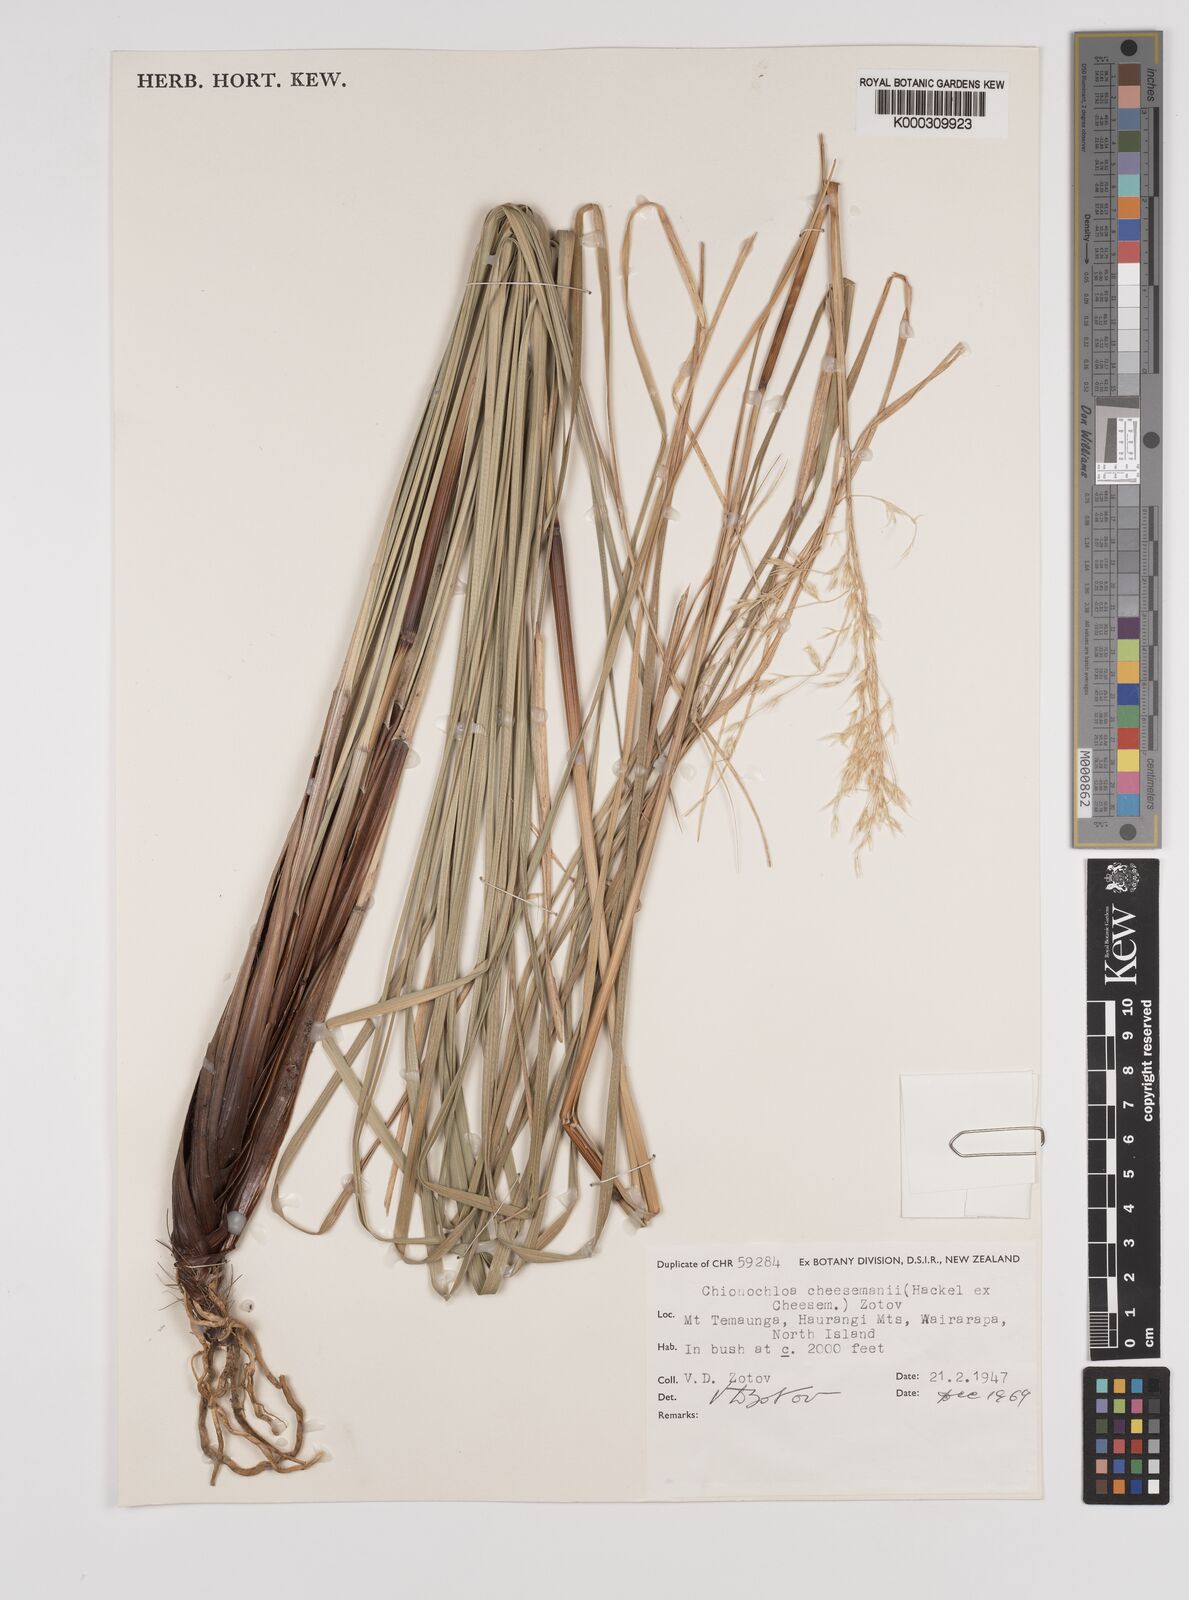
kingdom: Plantae
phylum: Tracheophyta
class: Liliopsida
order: Poales
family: Poaceae
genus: Chionochloa
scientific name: Chionochloa cheesemanii
